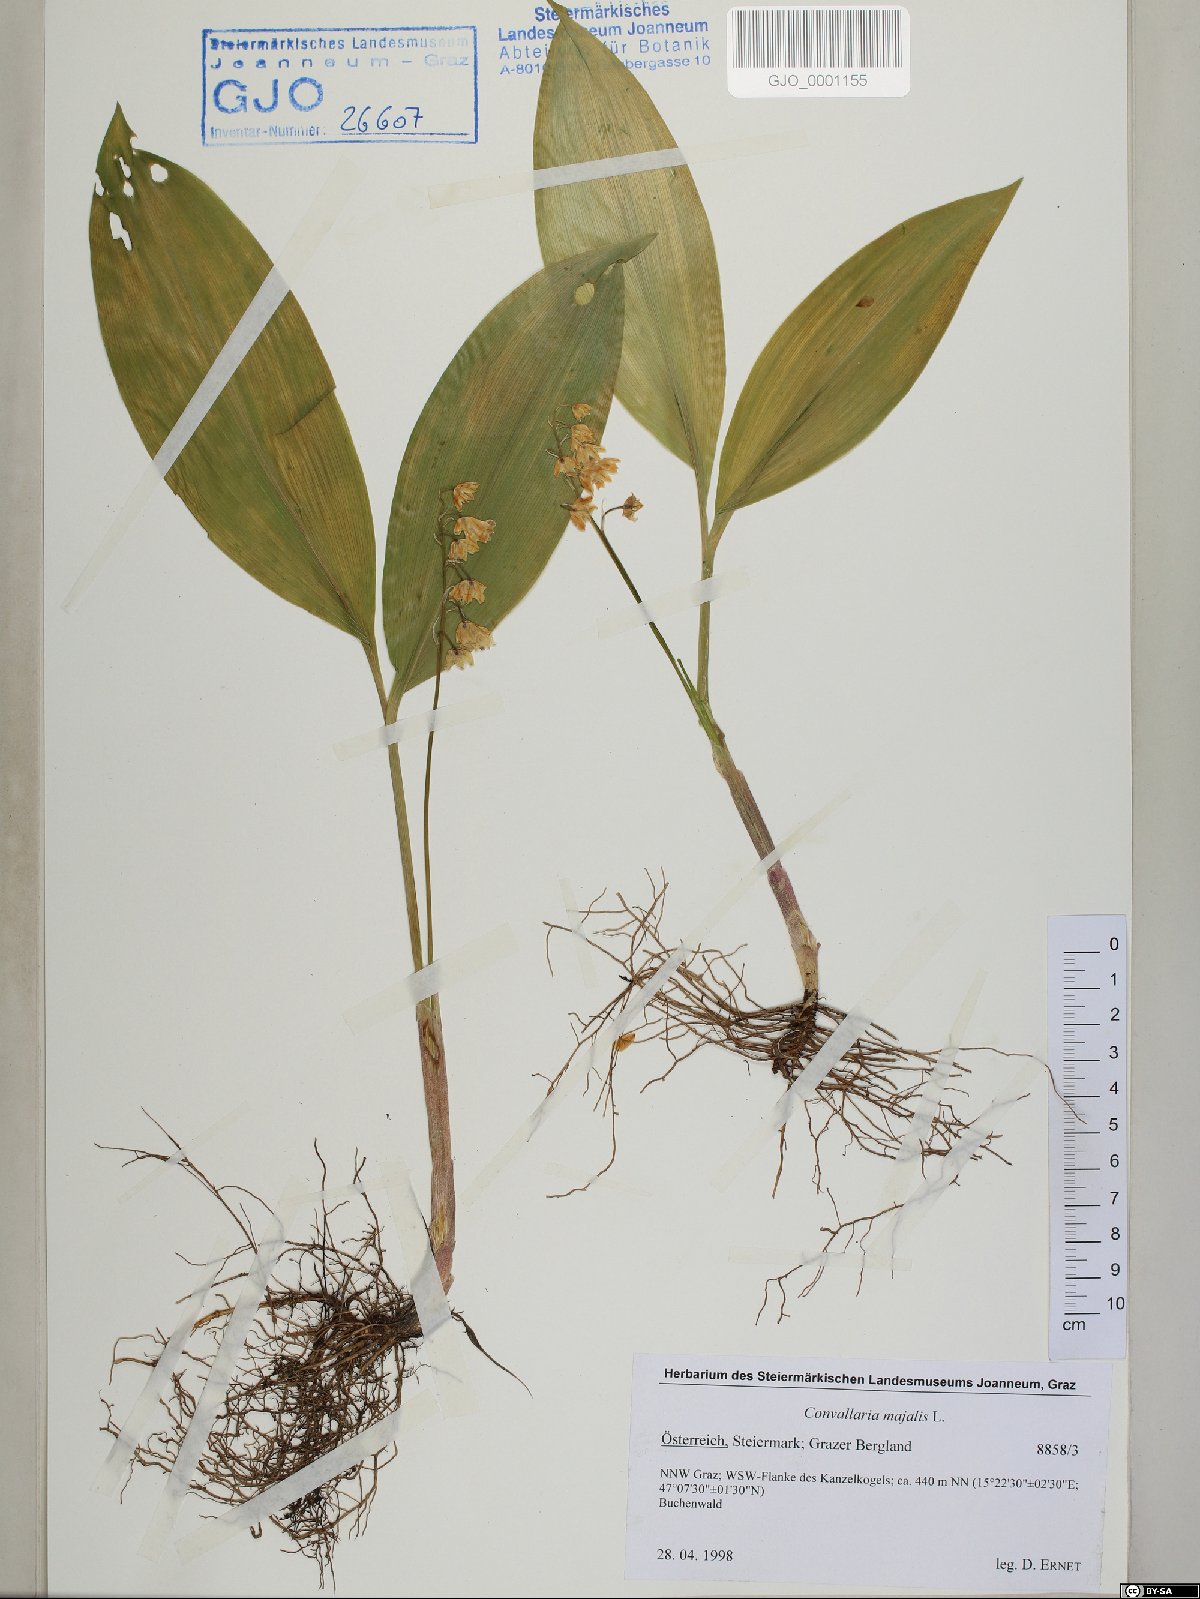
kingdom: Plantae
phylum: Tracheophyta
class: Liliopsida
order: Asparagales
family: Asparagaceae
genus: Convallaria
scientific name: Convallaria majalis
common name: Lily-of-the-valley
